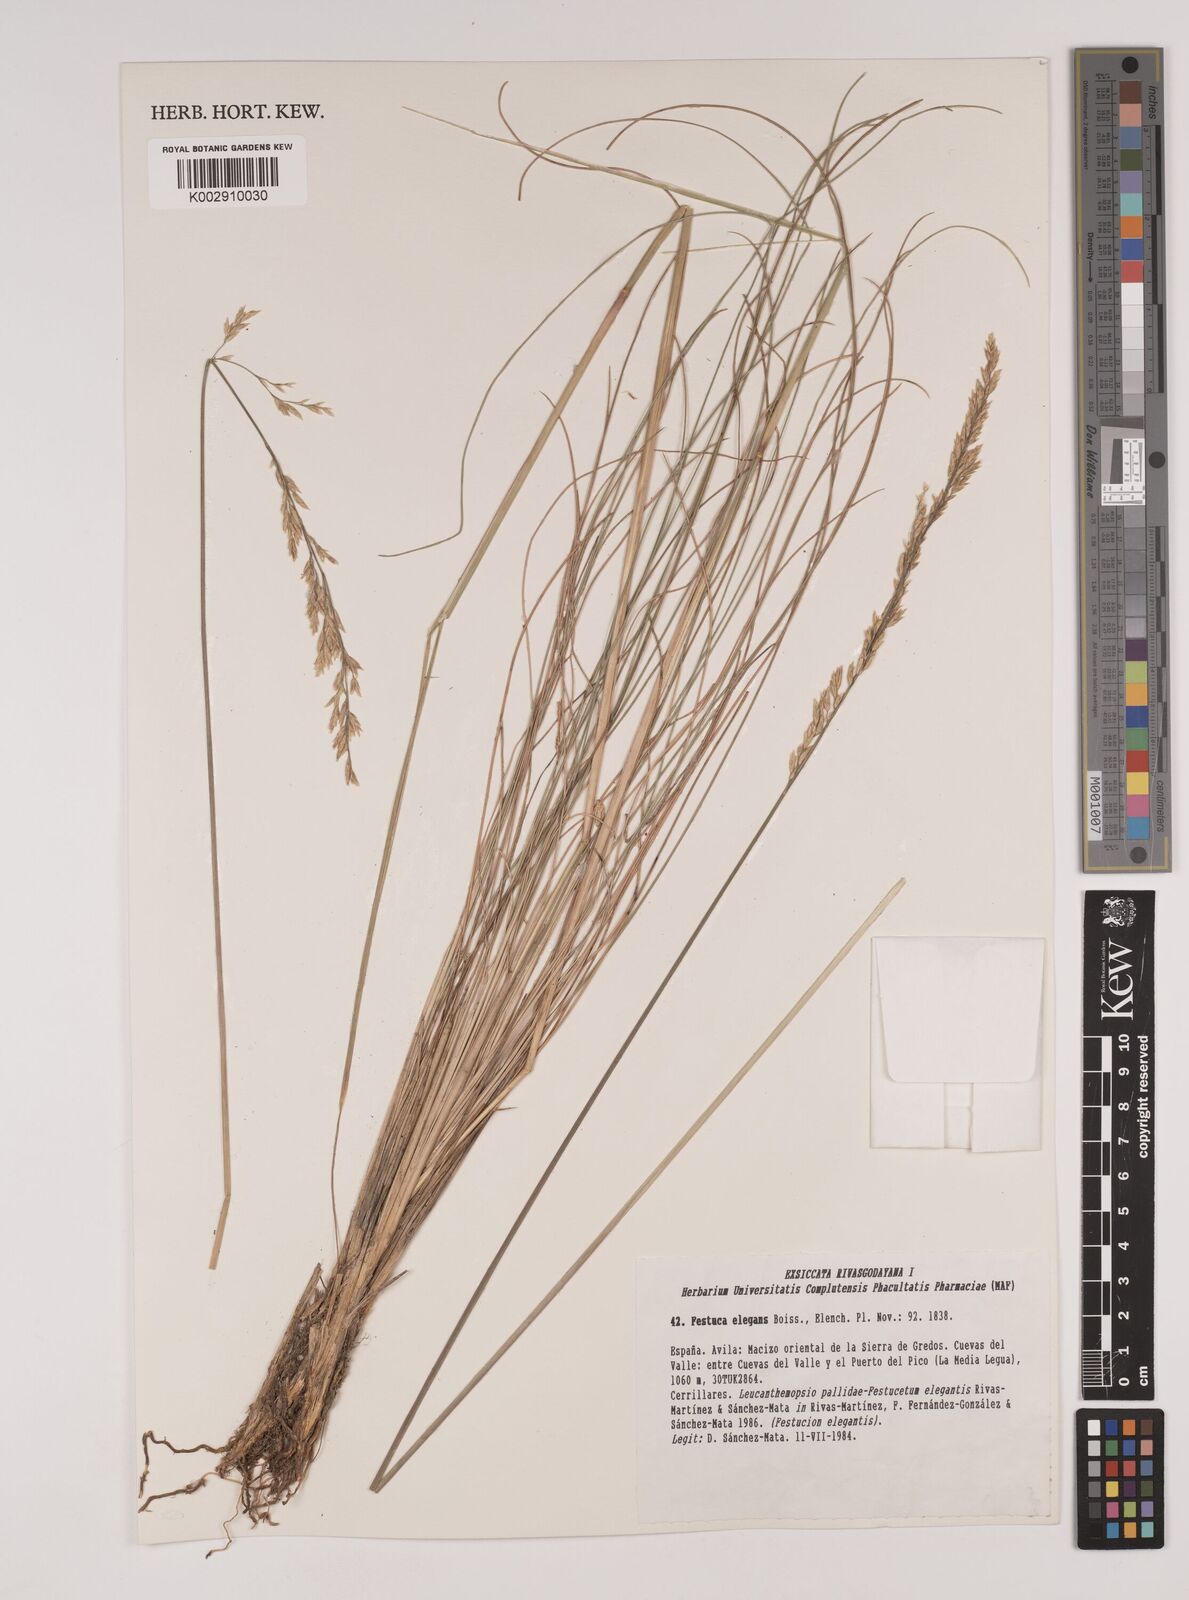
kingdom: Plantae
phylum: Tracheophyta
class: Liliopsida
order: Poales
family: Poaceae
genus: Festuca
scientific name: Festuca elegans
